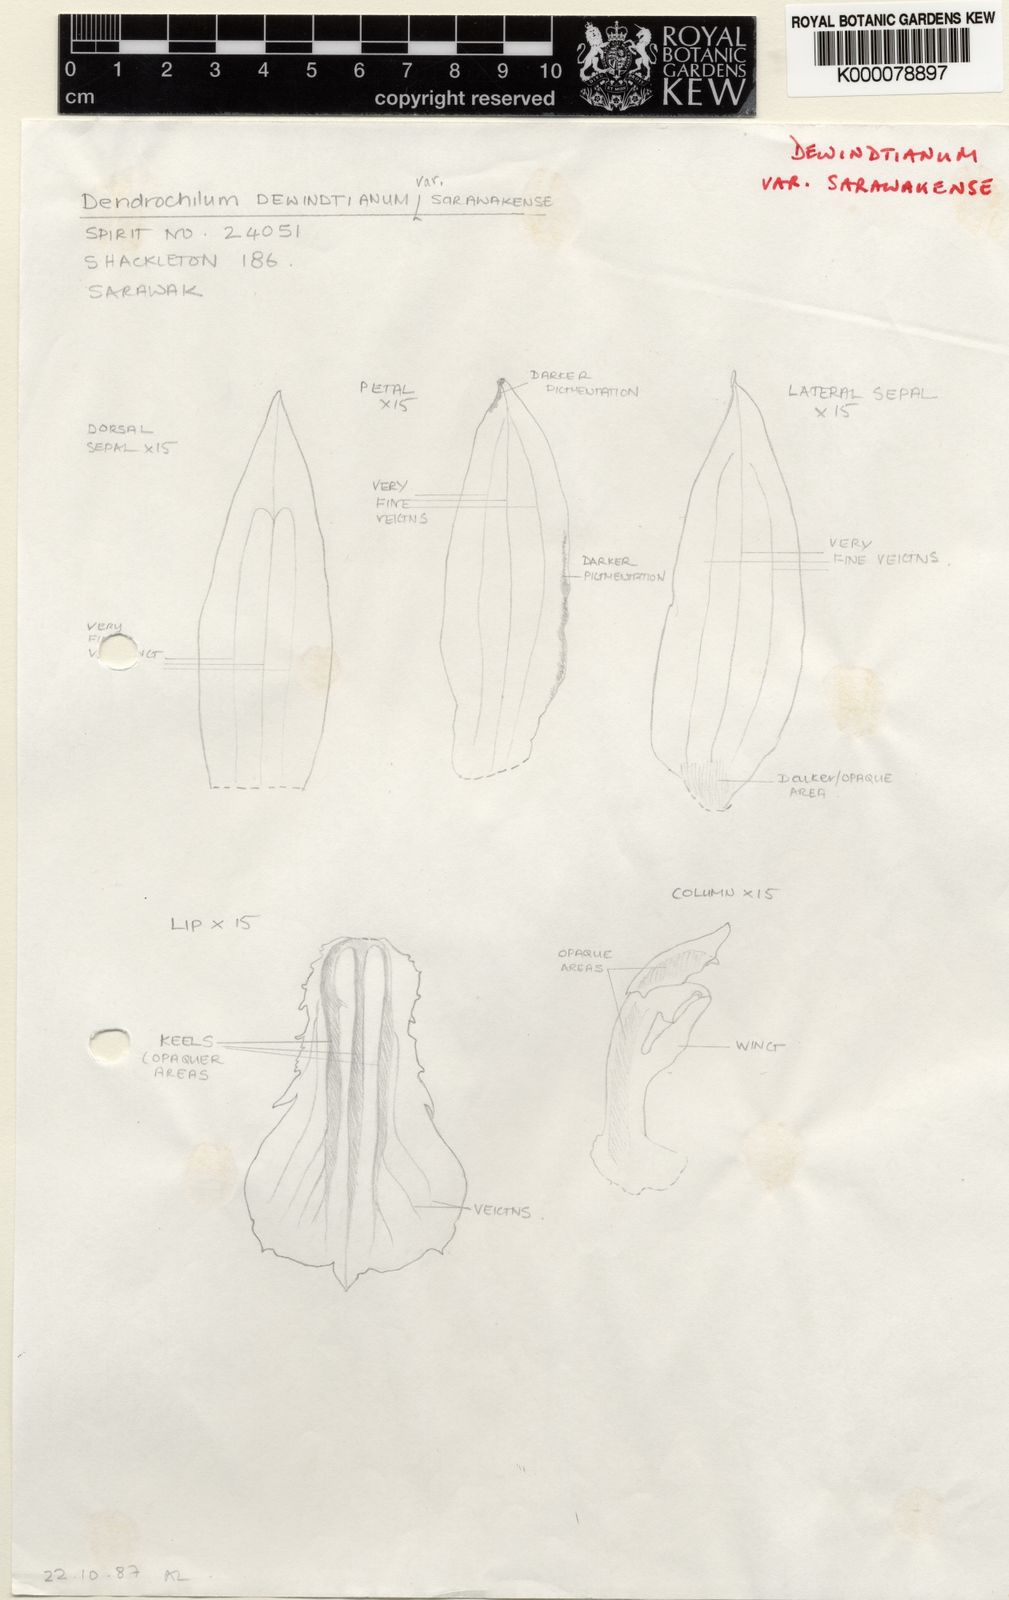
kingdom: Plantae
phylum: Tracheophyta
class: Liliopsida
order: Asparagales
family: Orchidaceae
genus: Coelogyne
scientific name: Coelogyne dewindtiana
